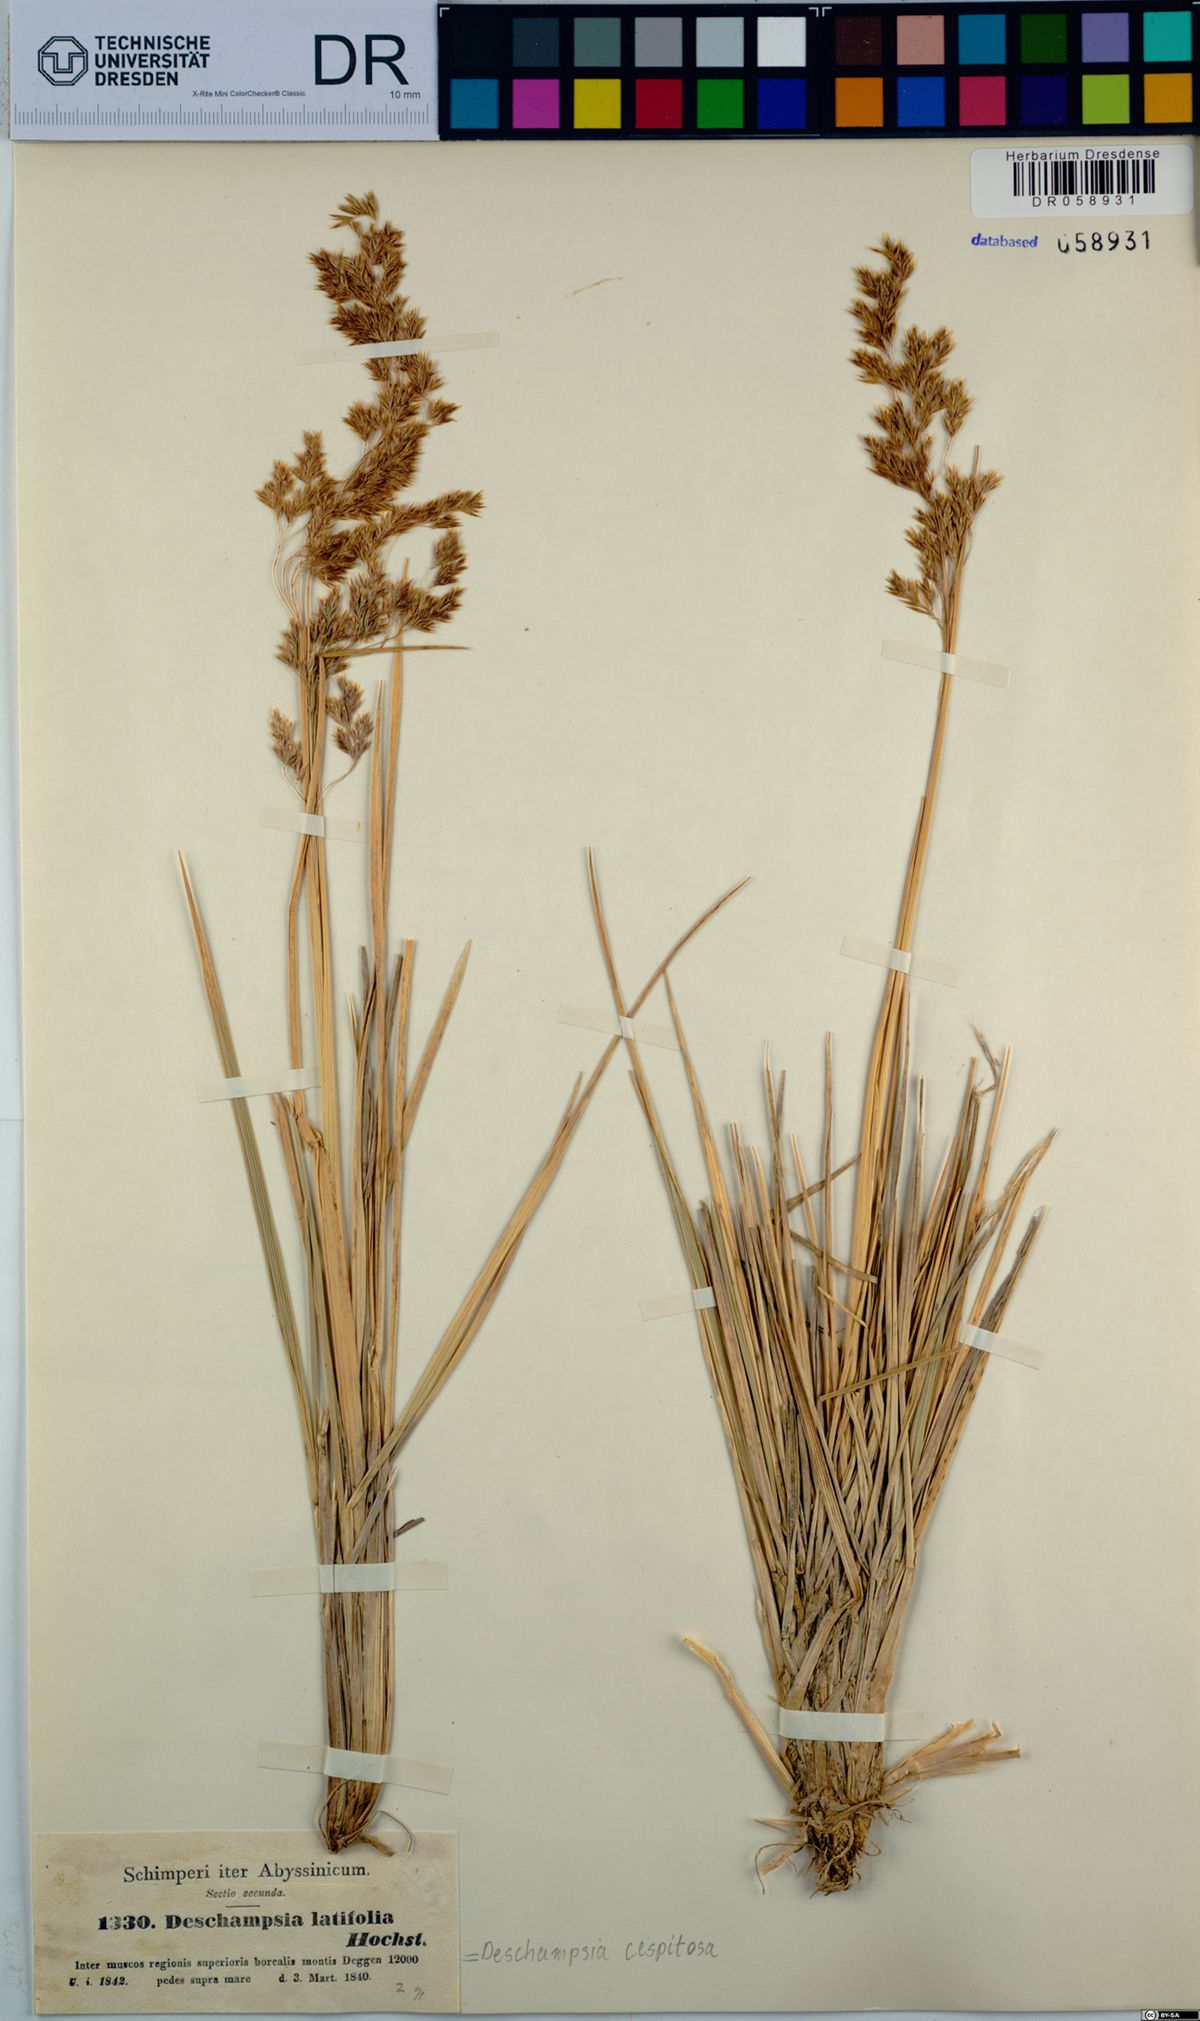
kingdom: Plantae
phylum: Tracheophyta
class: Liliopsida
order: Poales
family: Poaceae
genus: Deschampsia
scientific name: Deschampsia cespitosa
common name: Tufted hair-grass
